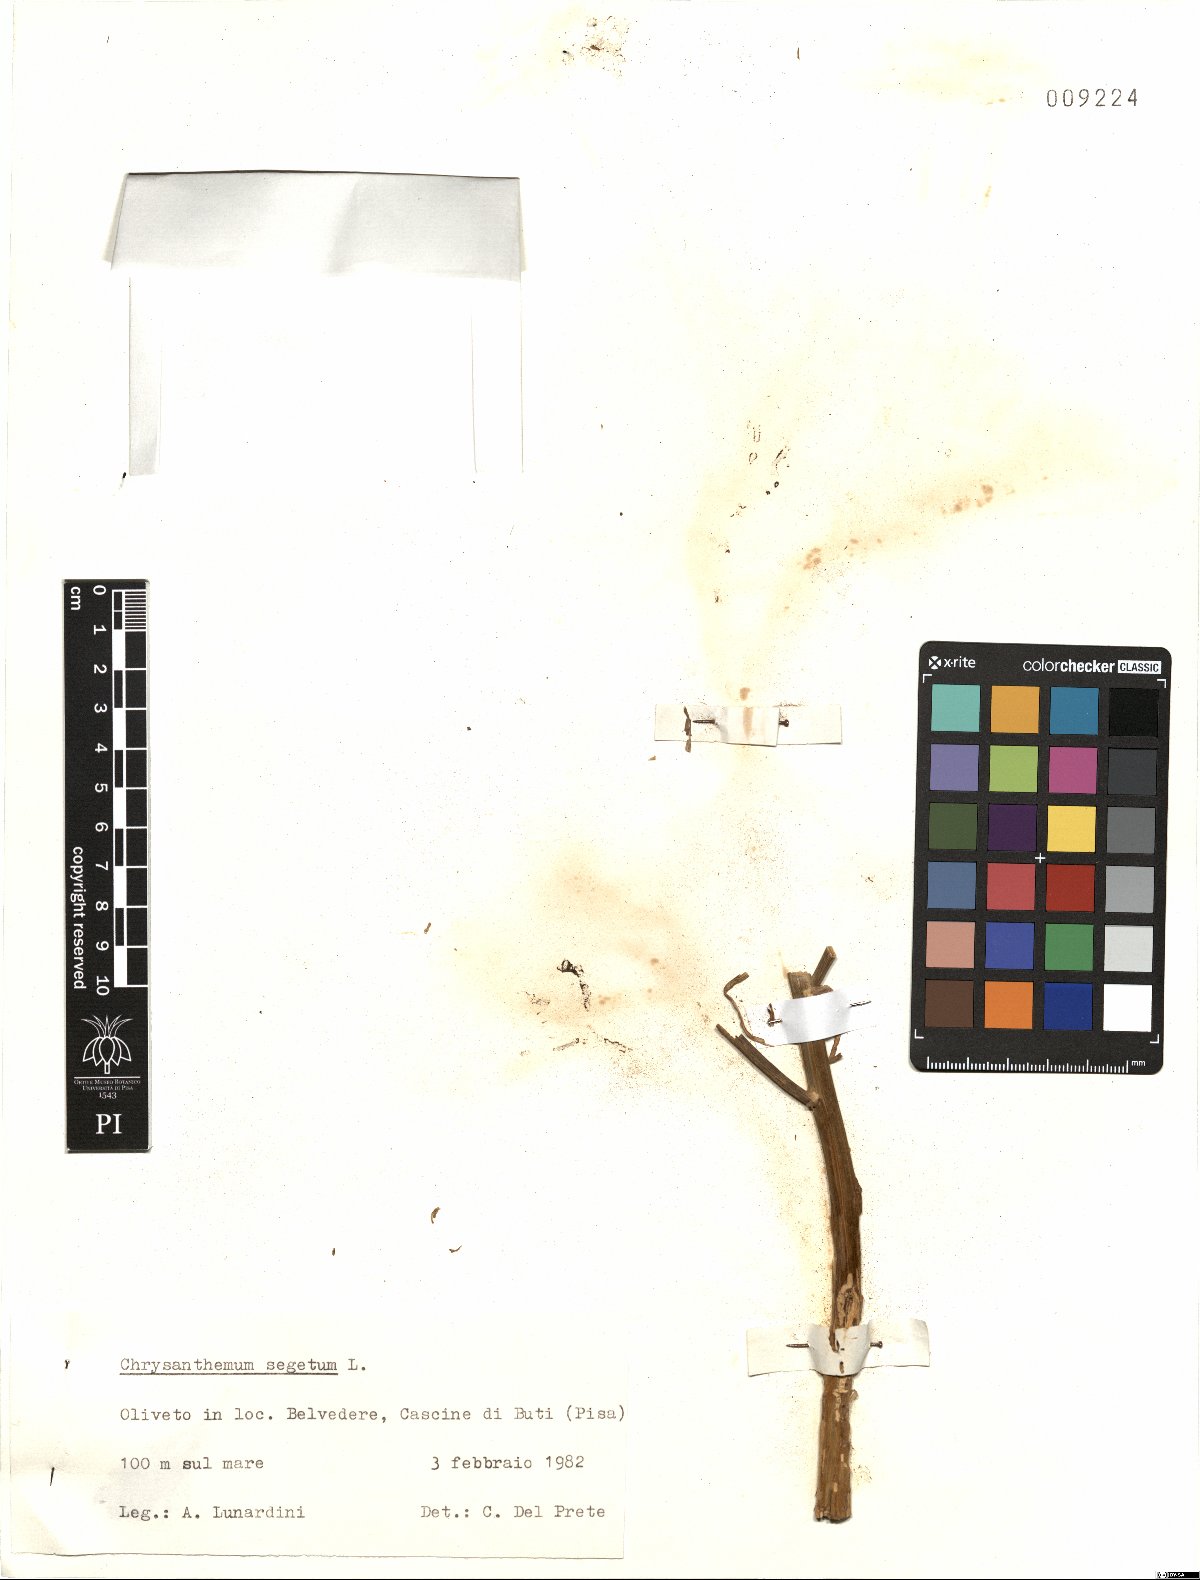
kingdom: Plantae
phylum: Tracheophyta
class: Magnoliopsida
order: Asterales
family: Asteraceae
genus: Glebionis
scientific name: Glebionis segetum
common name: Corndaisy
